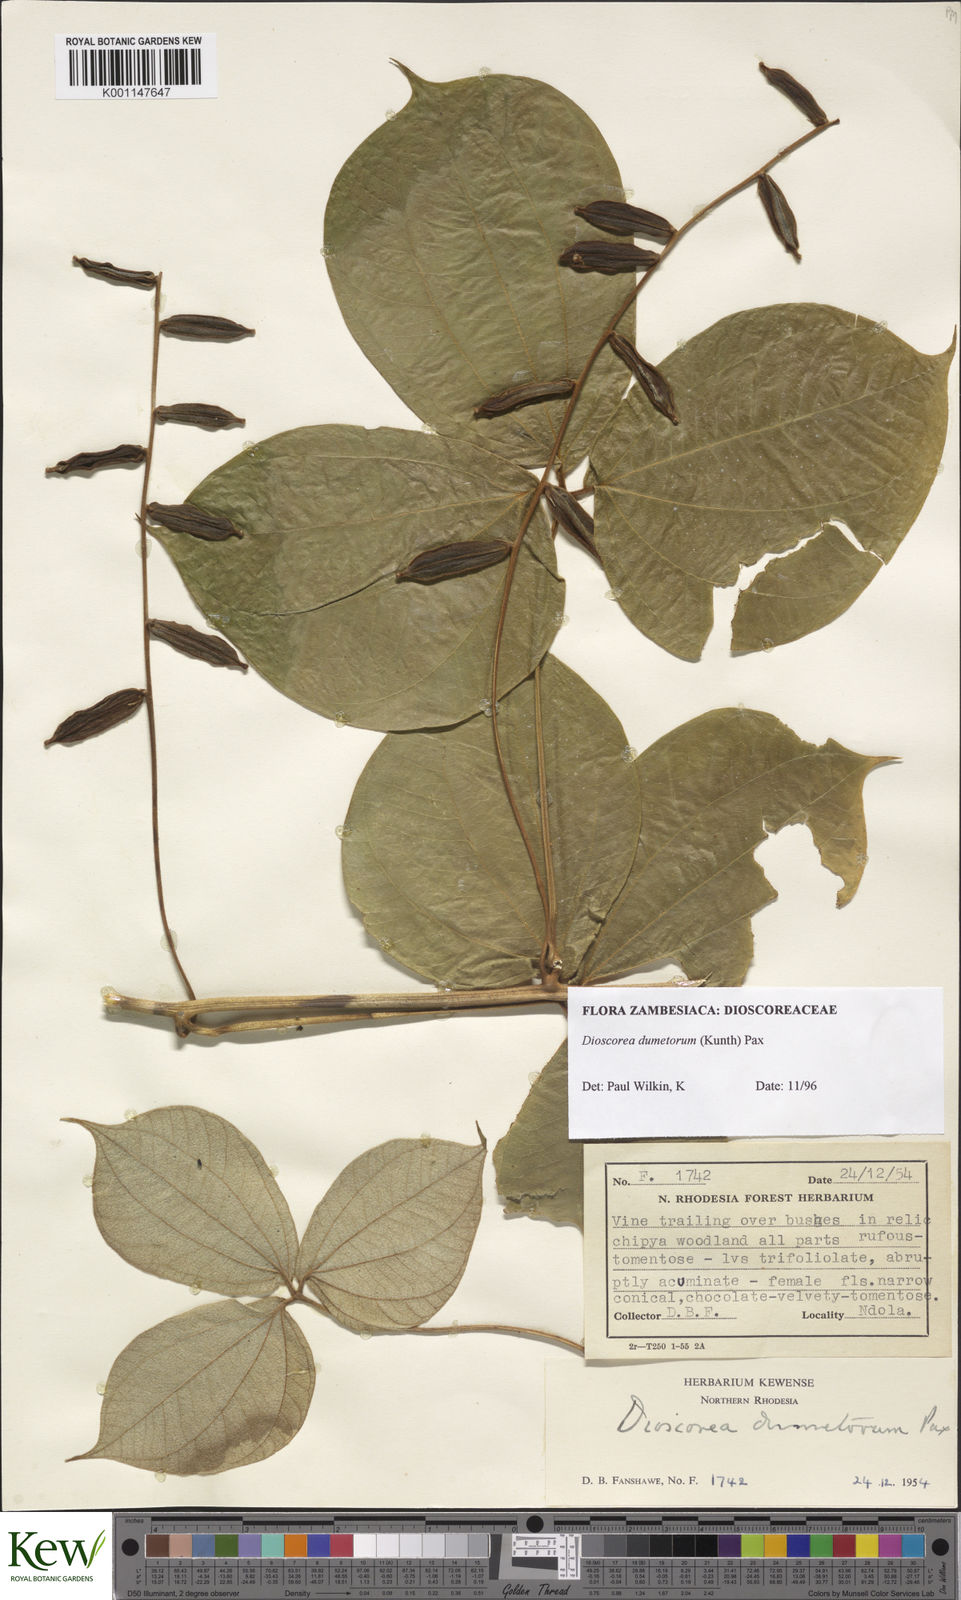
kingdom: Plantae
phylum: Tracheophyta
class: Liliopsida
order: Dioscoreales
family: Dioscoreaceae
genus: Dioscorea
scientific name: Dioscorea dumetorum
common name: African bitter yam
